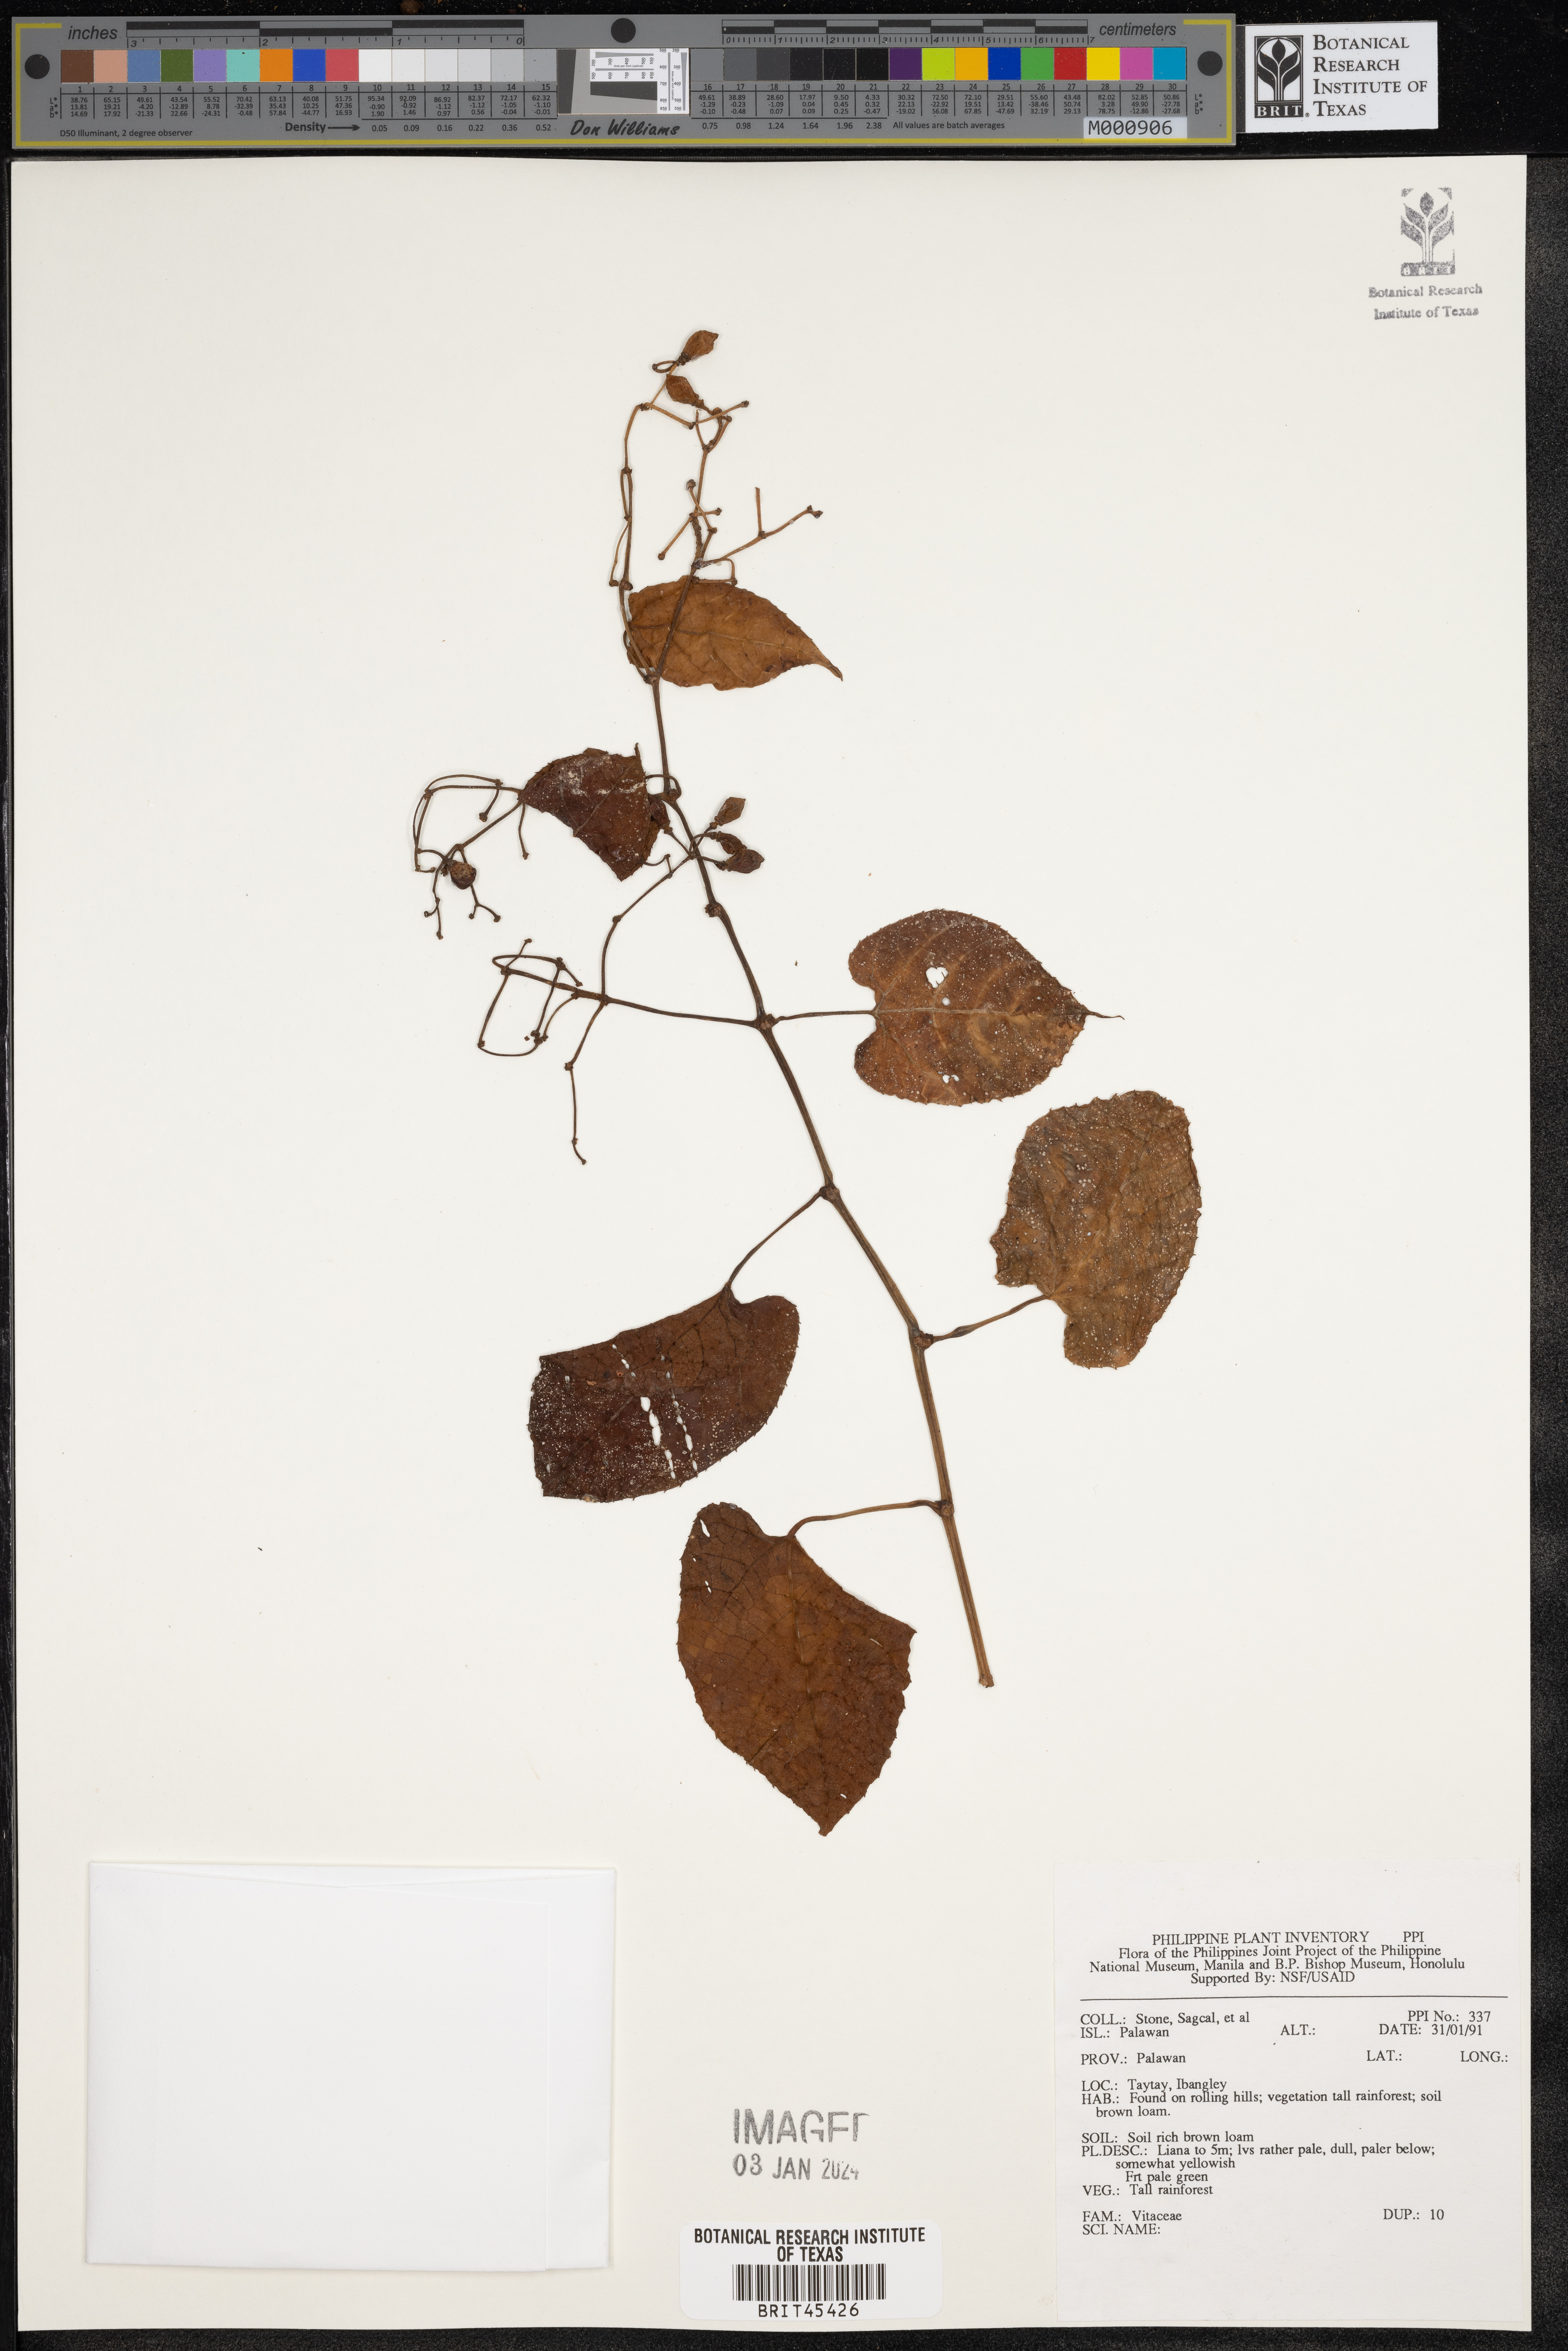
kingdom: Plantae
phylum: Tracheophyta
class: Magnoliopsida
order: Vitales
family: Vitaceae
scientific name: Vitaceae
